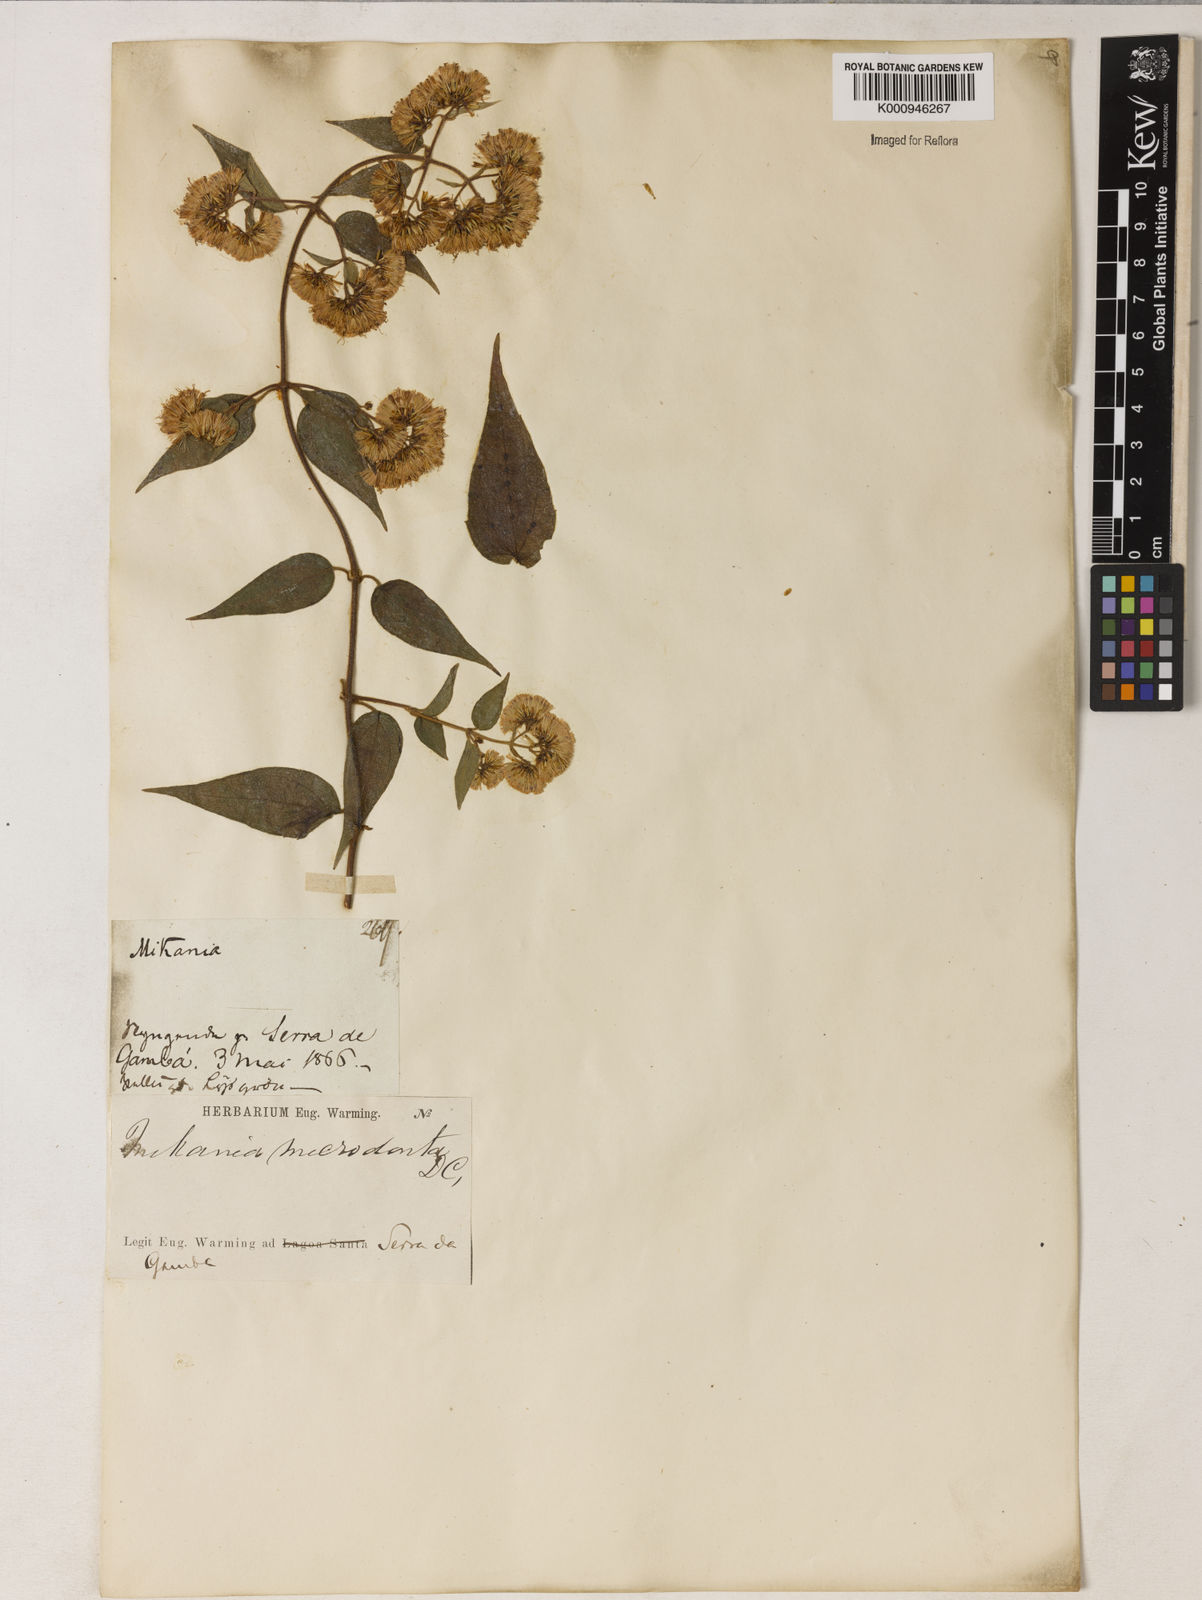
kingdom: Plantae
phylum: Tracheophyta
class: Magnoliopsida
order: Asterales
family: Asteraceae
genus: Mikania
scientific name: Mikania microdonta
